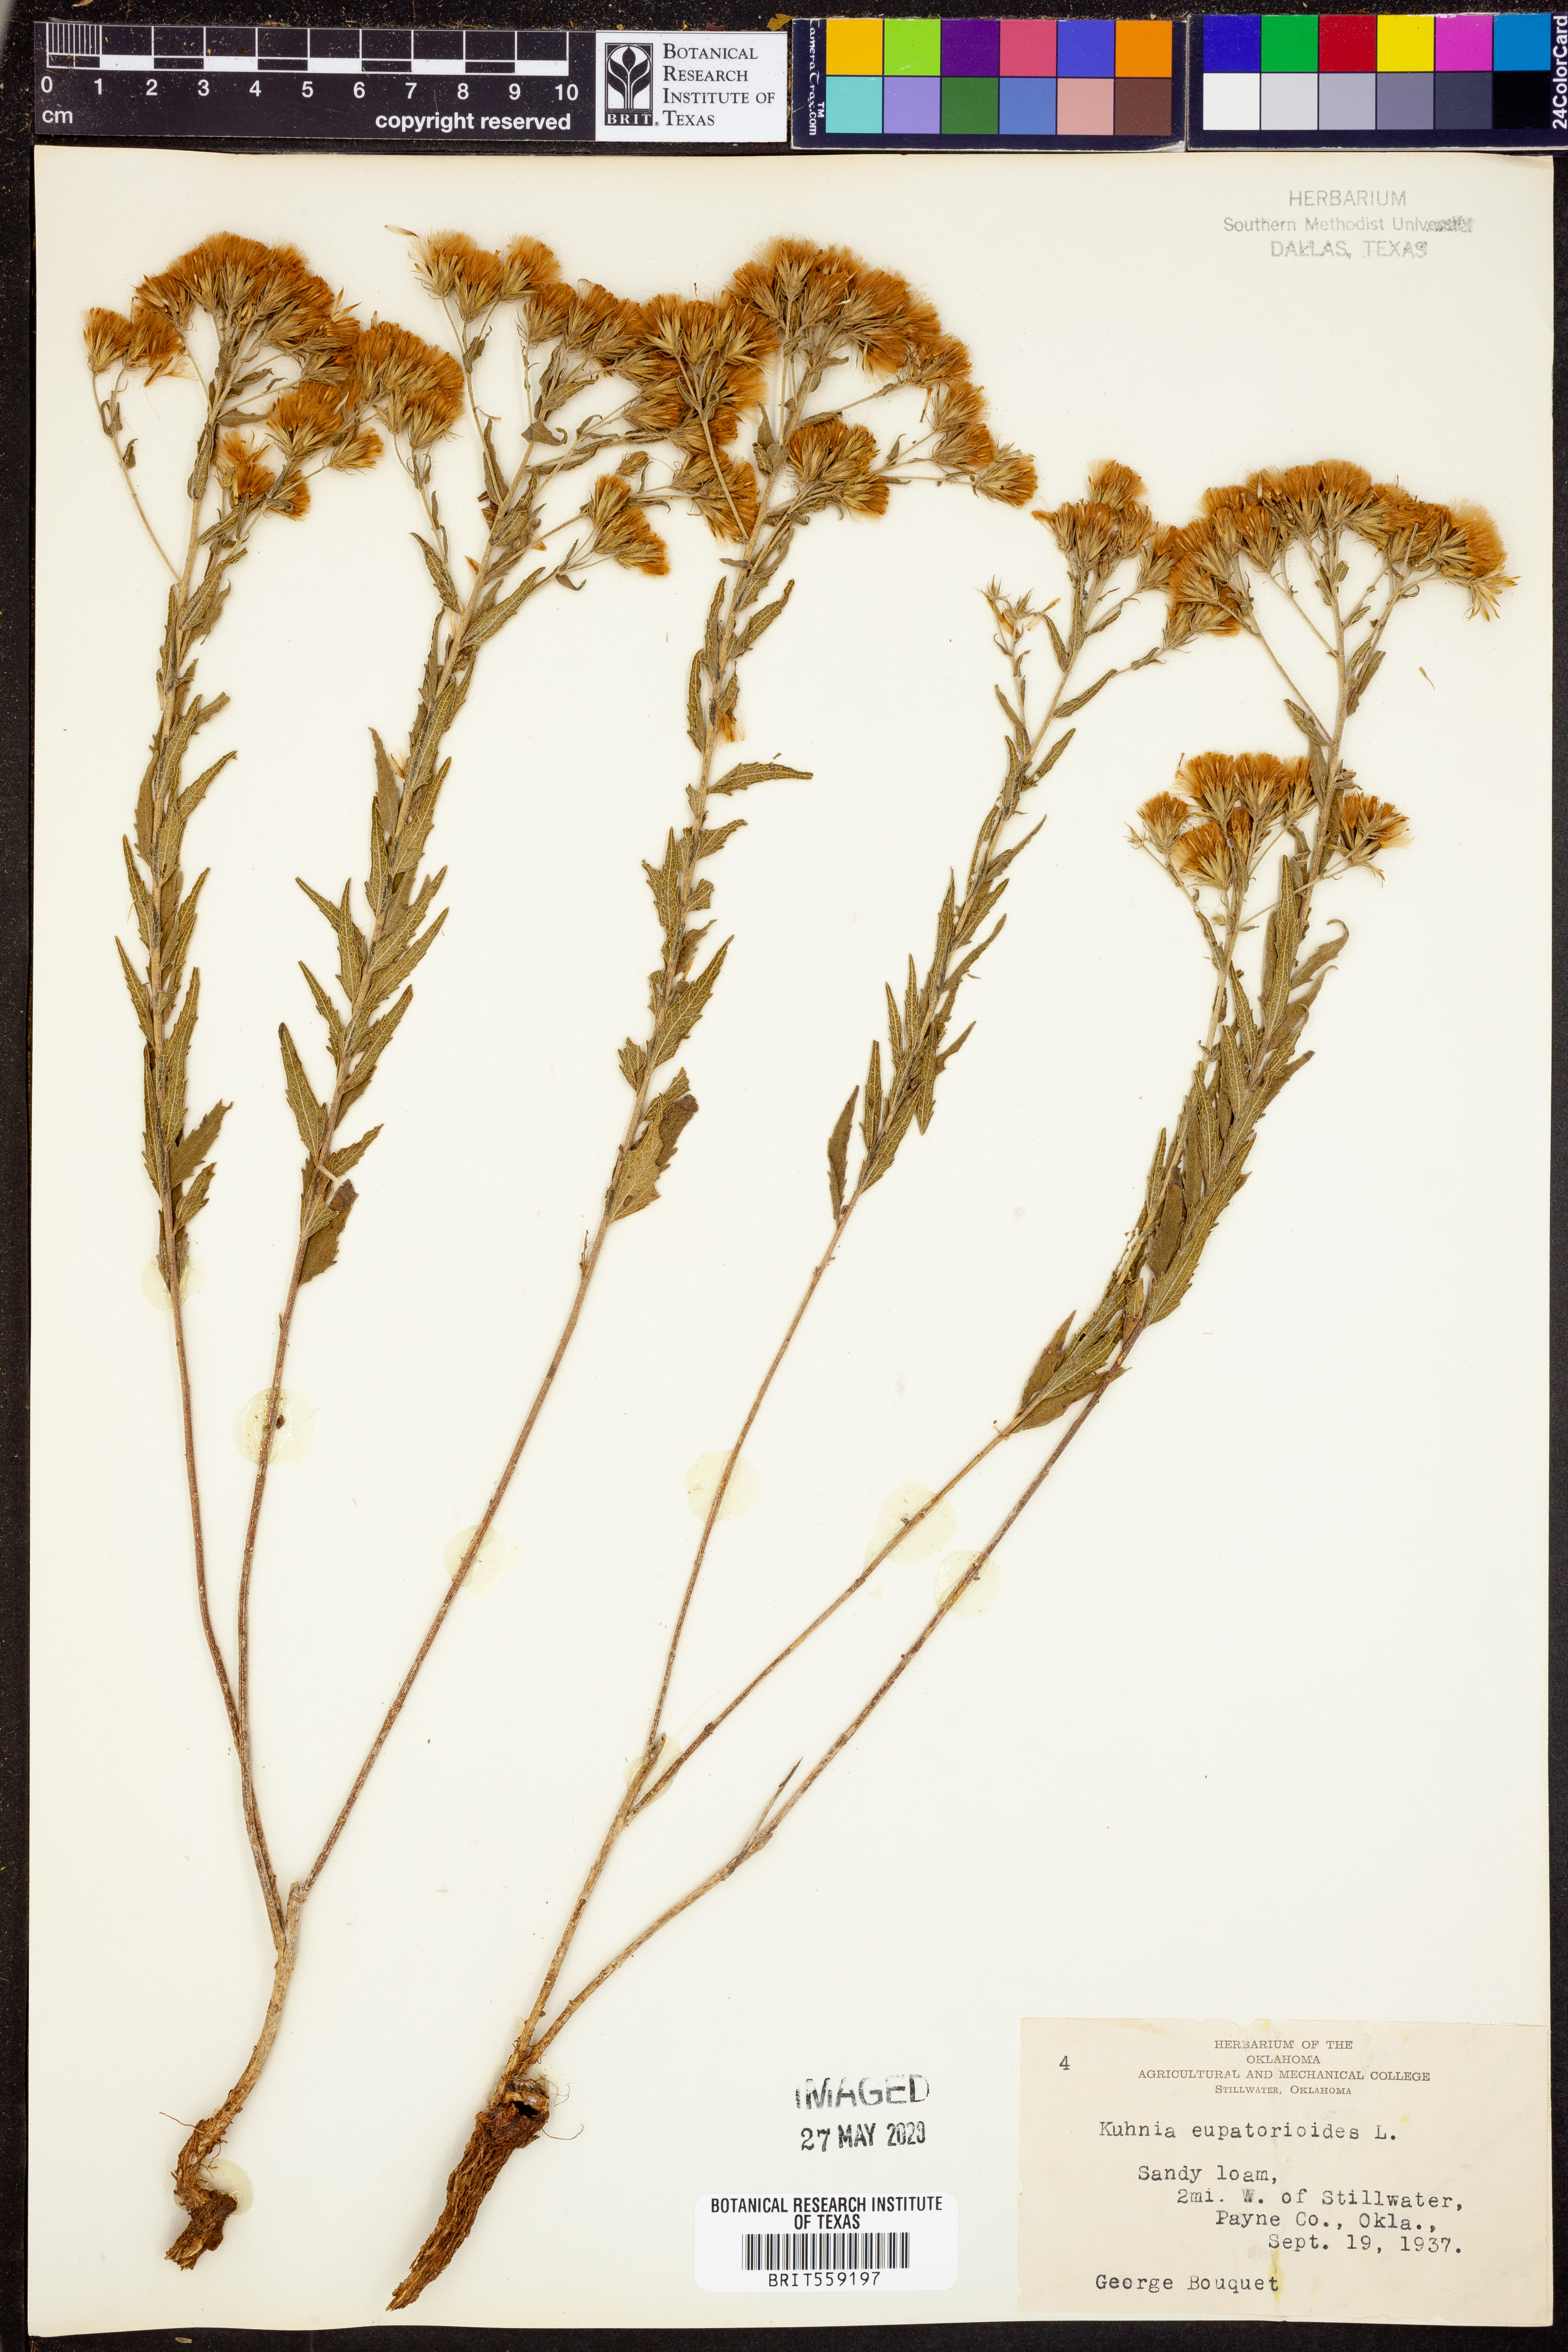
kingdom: Plantae
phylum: Tracheophyta
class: Magnoliopsida
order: Asterales
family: Asteraceae
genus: Brickellia
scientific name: Brickellia eupatorioides
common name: False boneset
